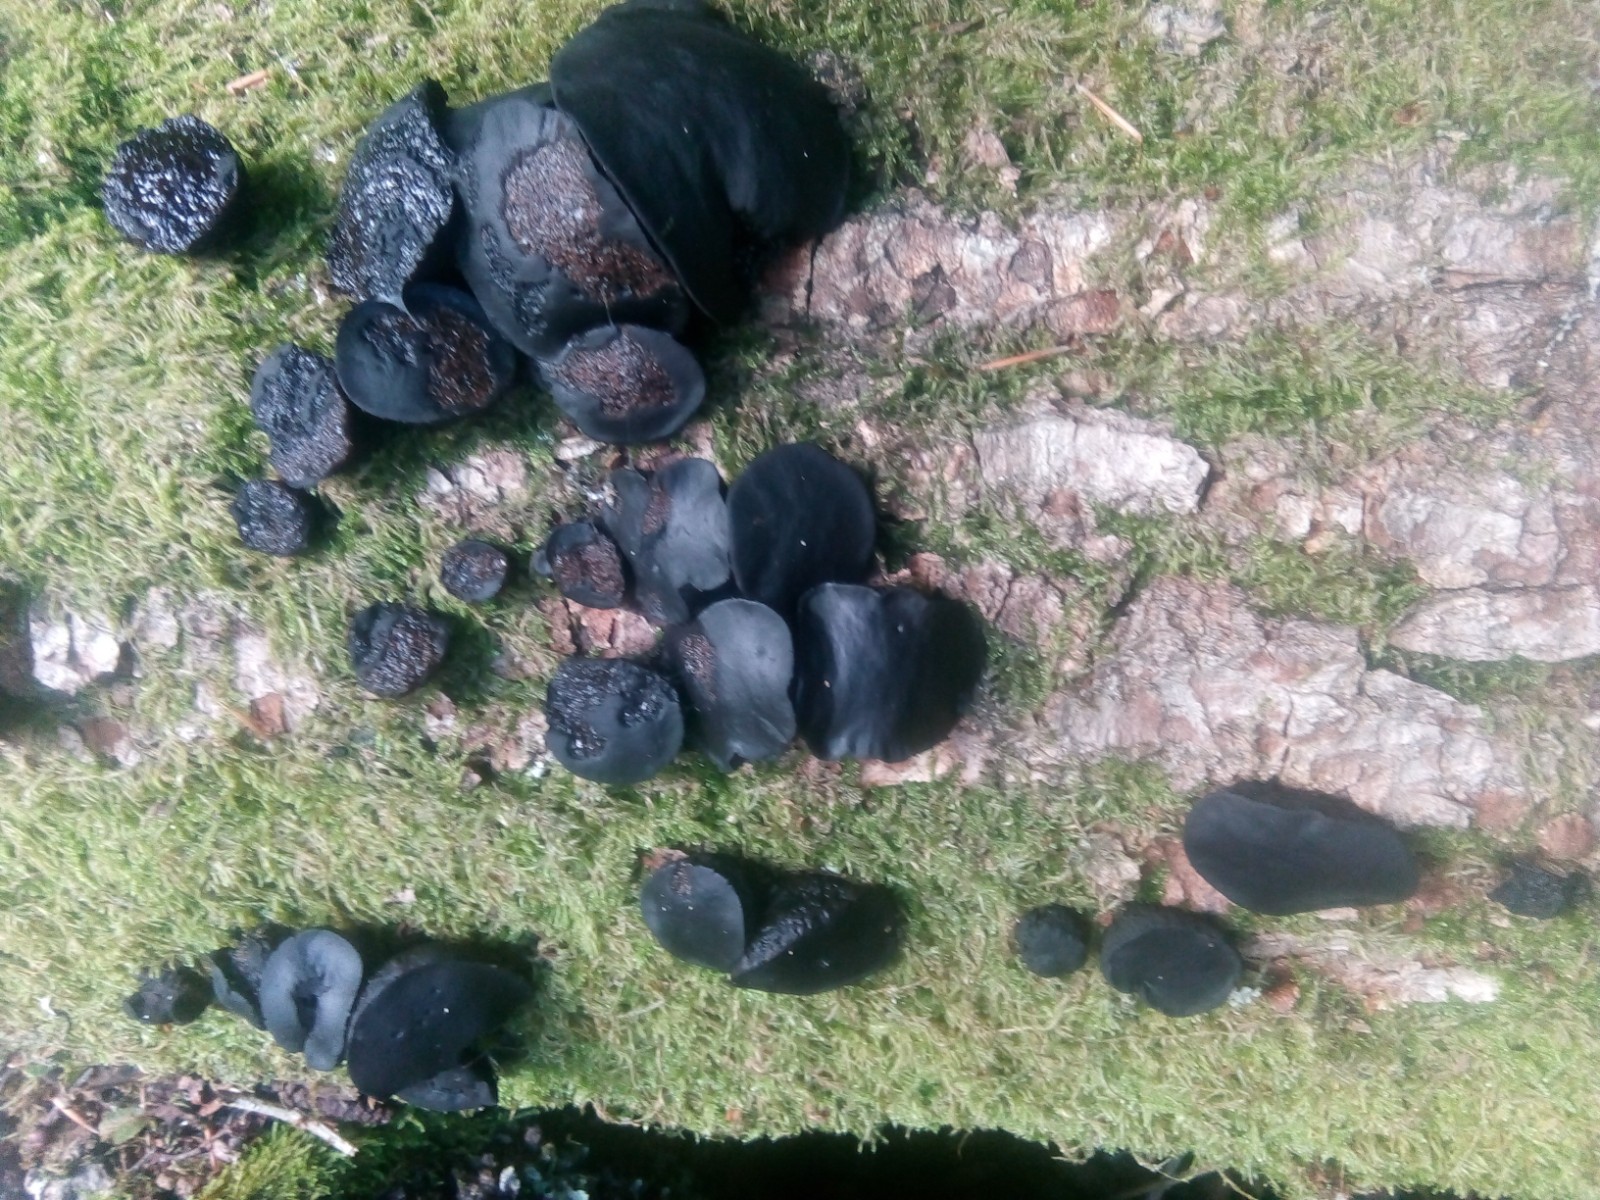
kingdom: Fungi
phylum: Ascomycota
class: Leotiomycetes
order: Phacidiales
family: Phacidiaceae
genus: Bulgaria
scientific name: Bulgaria inquinans
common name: afsmittende topsvamp
